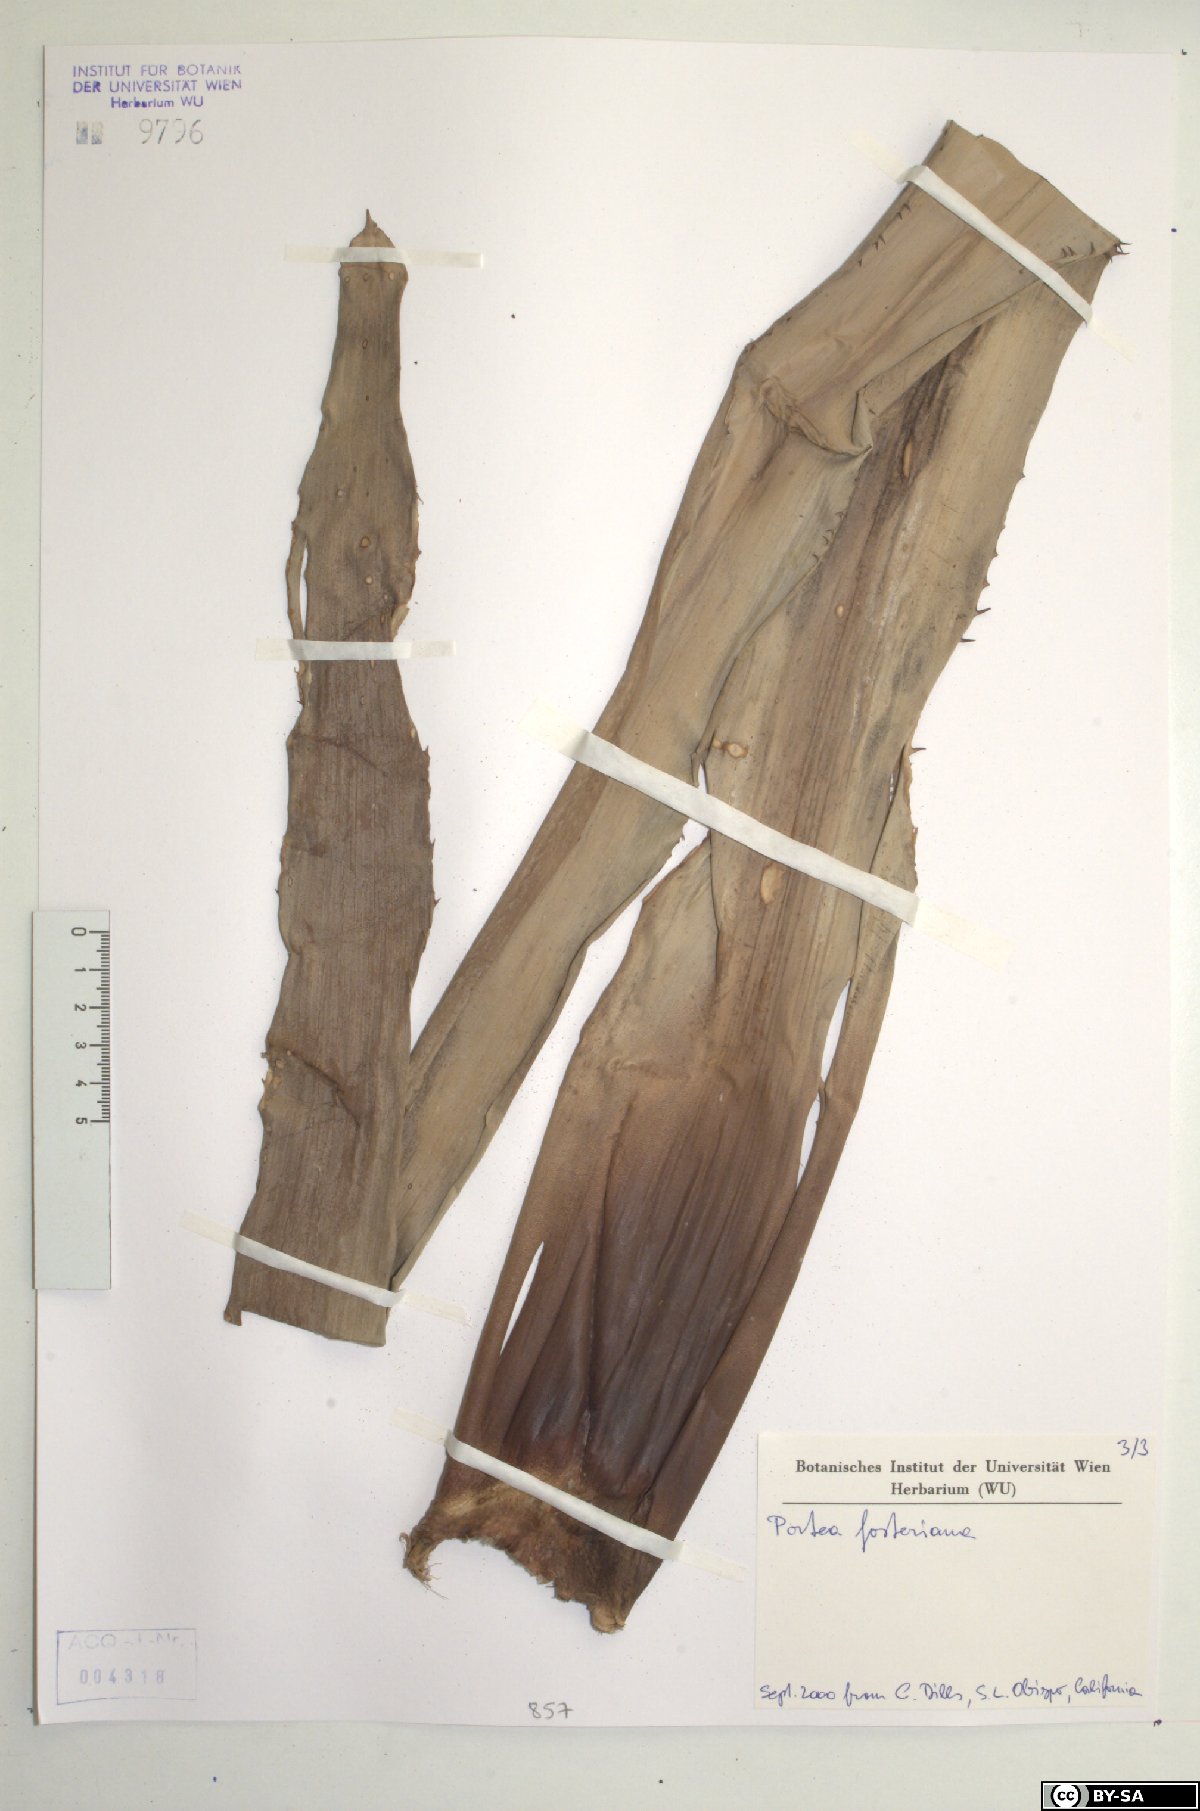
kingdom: Plantae
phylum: Tracheophyta
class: Liliopsida
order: Poales
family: Bromeliaceae
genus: Portea
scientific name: Portea fosteriana
